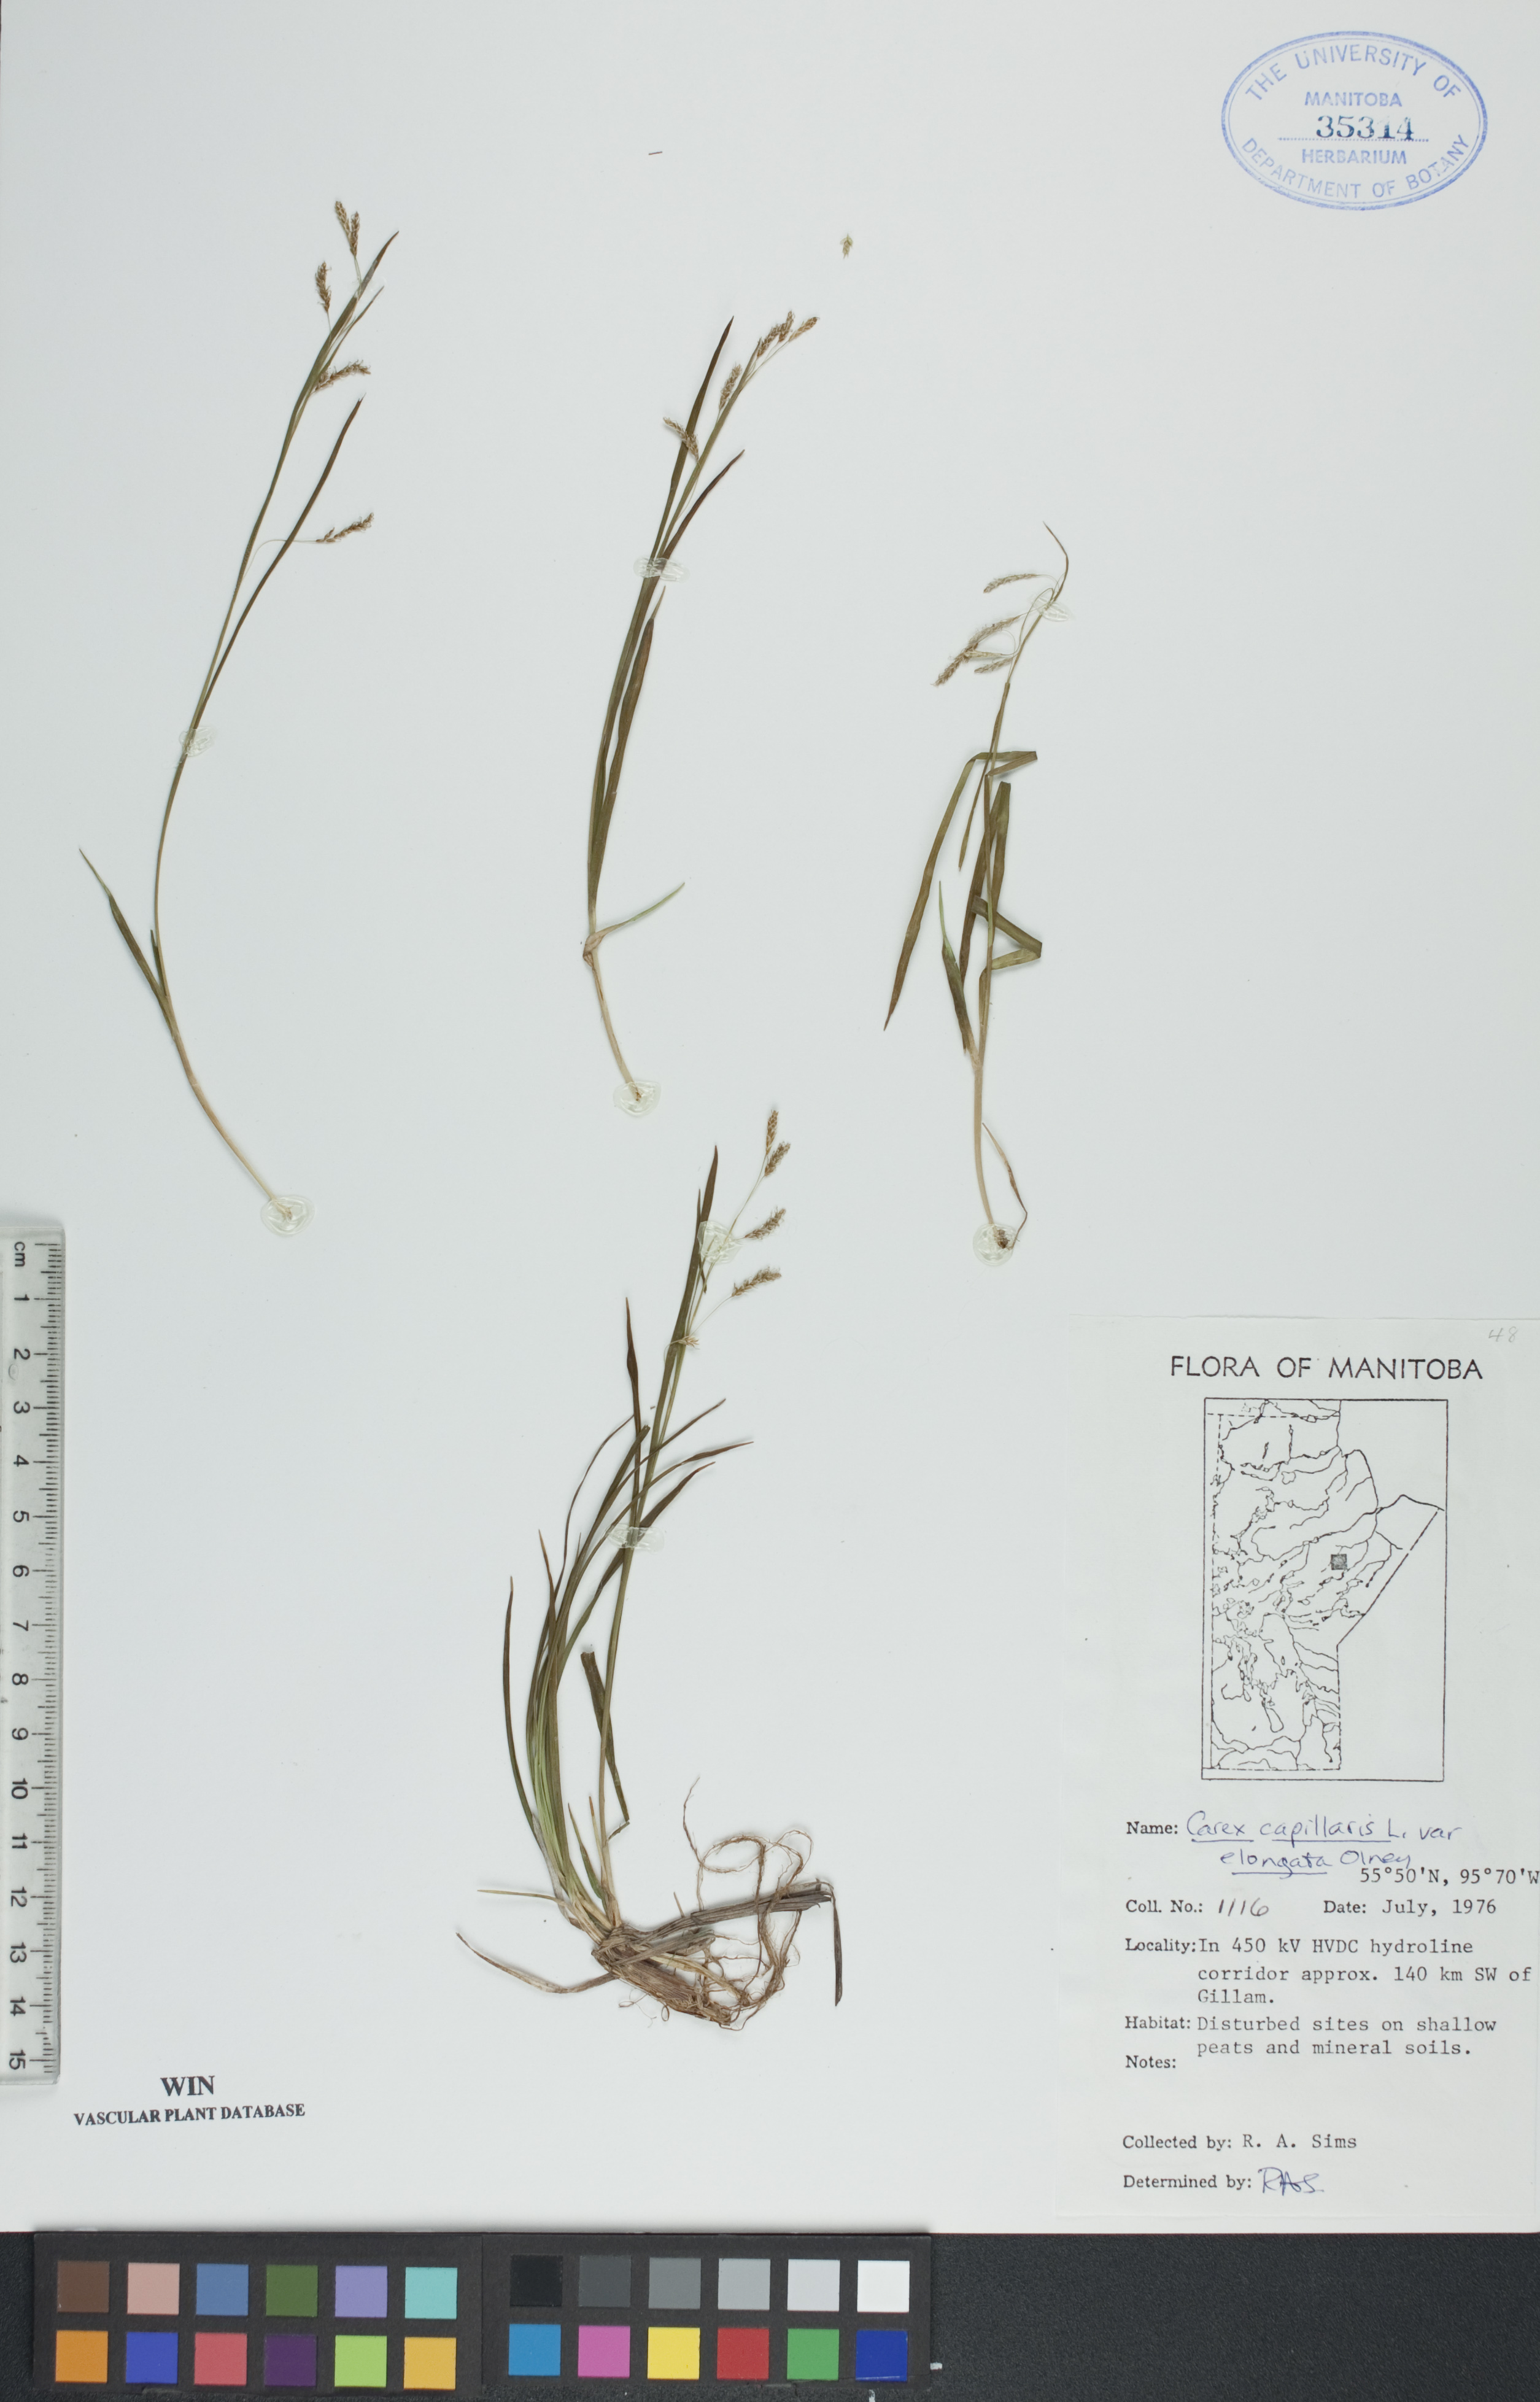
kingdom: Plantae
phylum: Tracheophyta
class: Liliopsida
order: Poales
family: Cyperaceae
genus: Carex
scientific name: Carex capillaris
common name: Hair sedge
